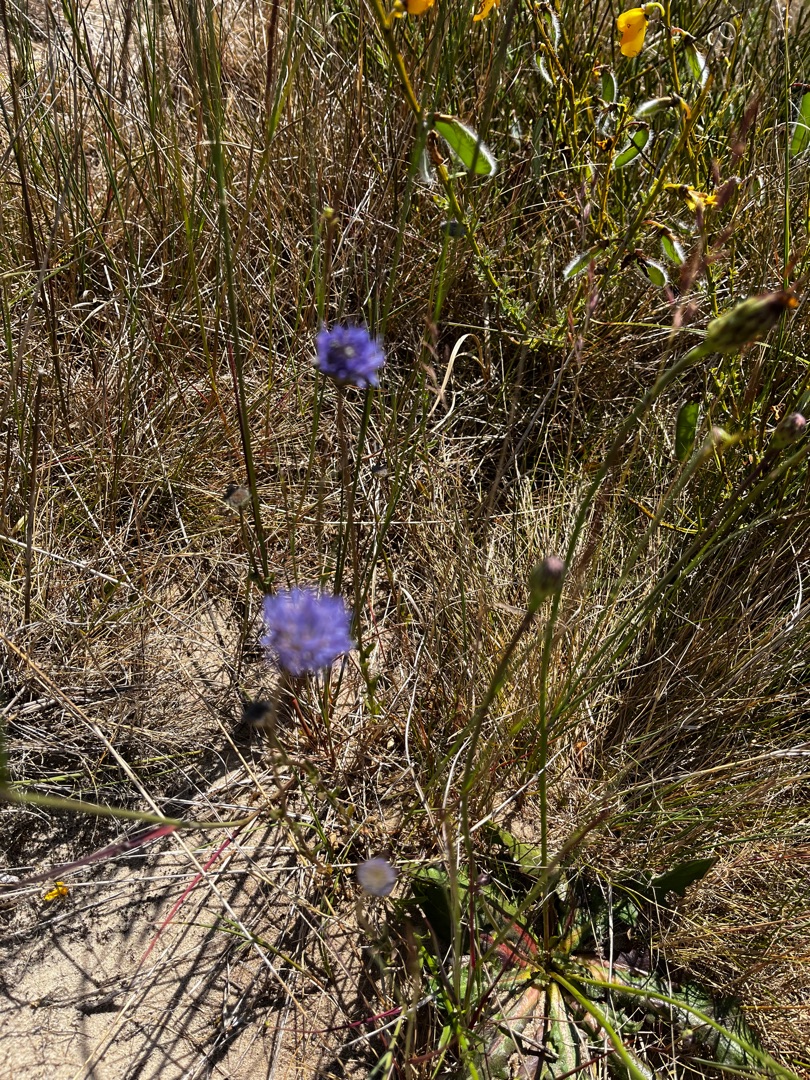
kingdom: Plantae
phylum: Tracheophyta
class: Magnoliopsida
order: Asterales
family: Campanulaceae
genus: Jasione
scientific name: Jasione montana
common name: Blåmunke
